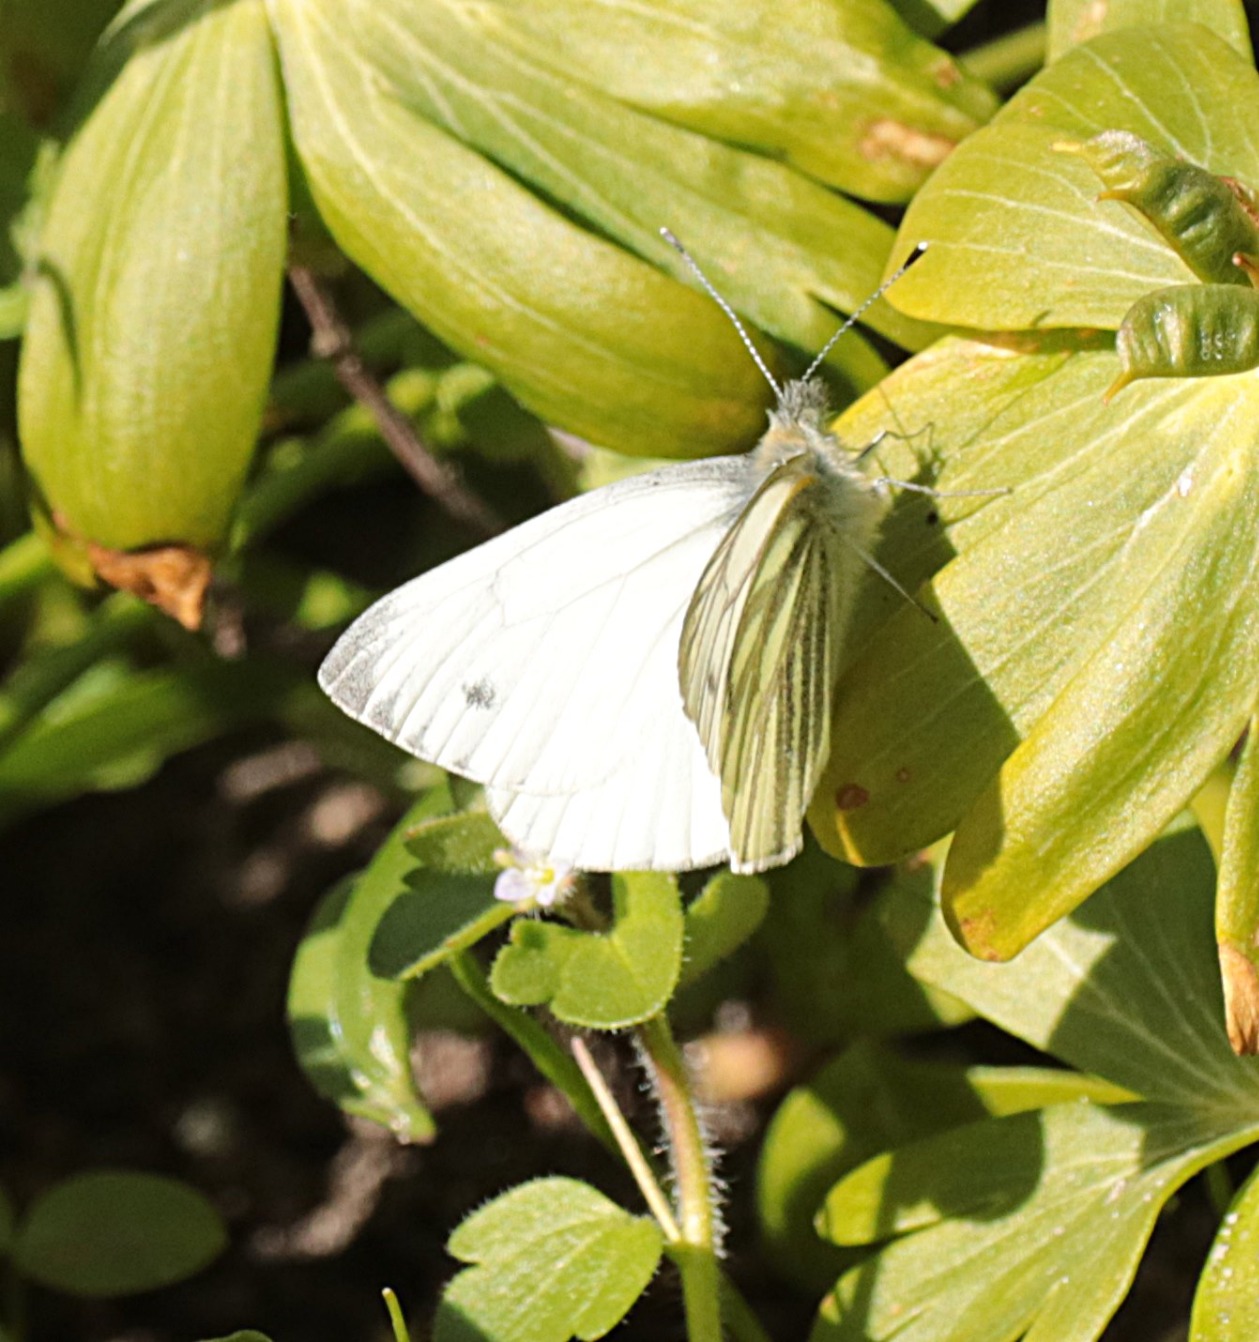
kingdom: Animalia
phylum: Arthropoda
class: Insecta
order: Lepidoptera
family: Pieridae
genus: Pieris
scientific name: Pieris napi
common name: Grønåret kålsommerfugl
